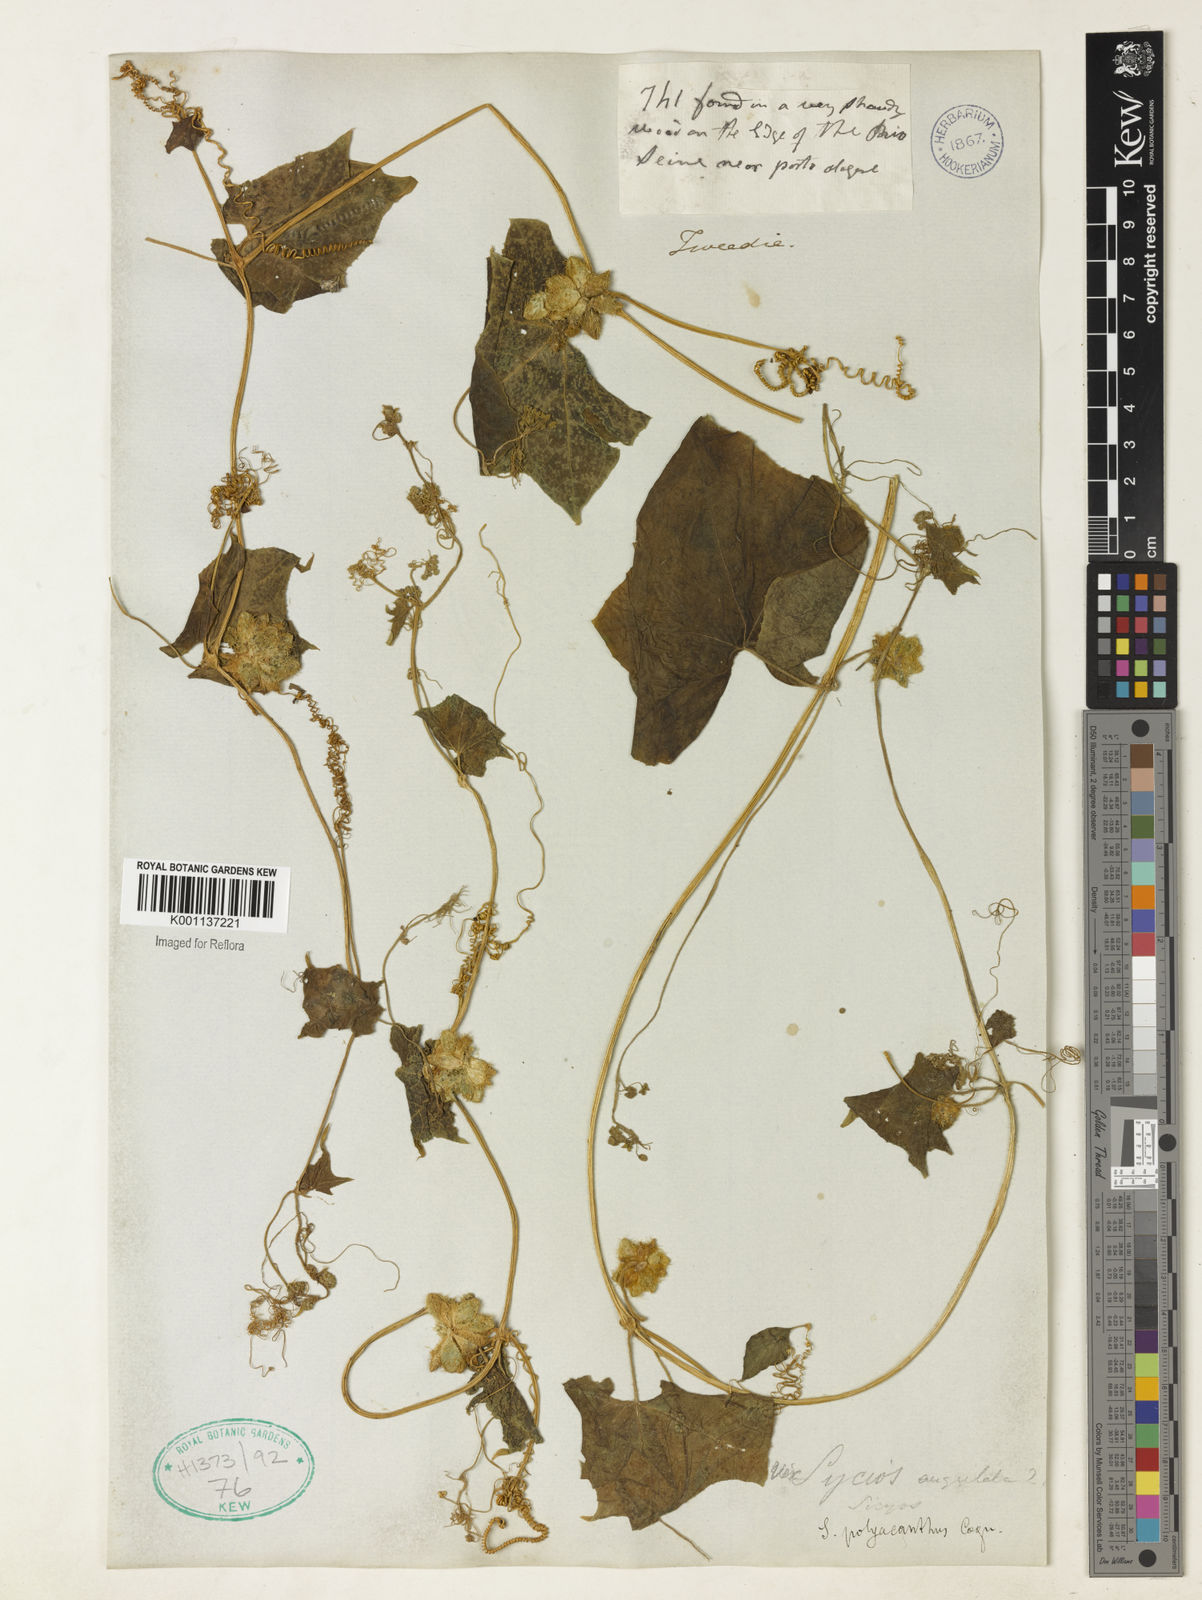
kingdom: Plantae
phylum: Tracheophyta
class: Magnoliopsida
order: Cucurbitales
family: Cucurbitaceae
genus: Sicyos
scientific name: Sicyos polyacanthos
